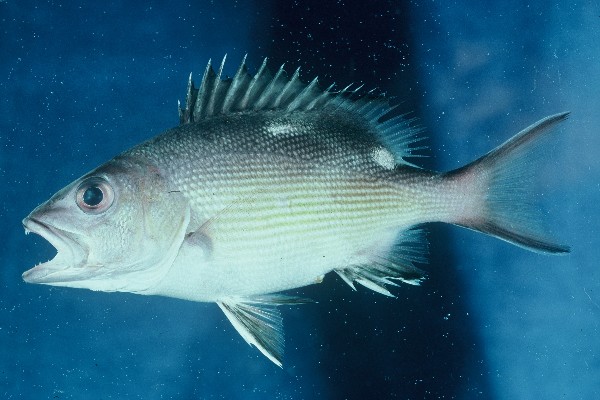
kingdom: Animalia
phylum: Chordata
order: Perciformes
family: Lutjanidae
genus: Lutjanus
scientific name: Lutjanus bohar
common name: Red bass
